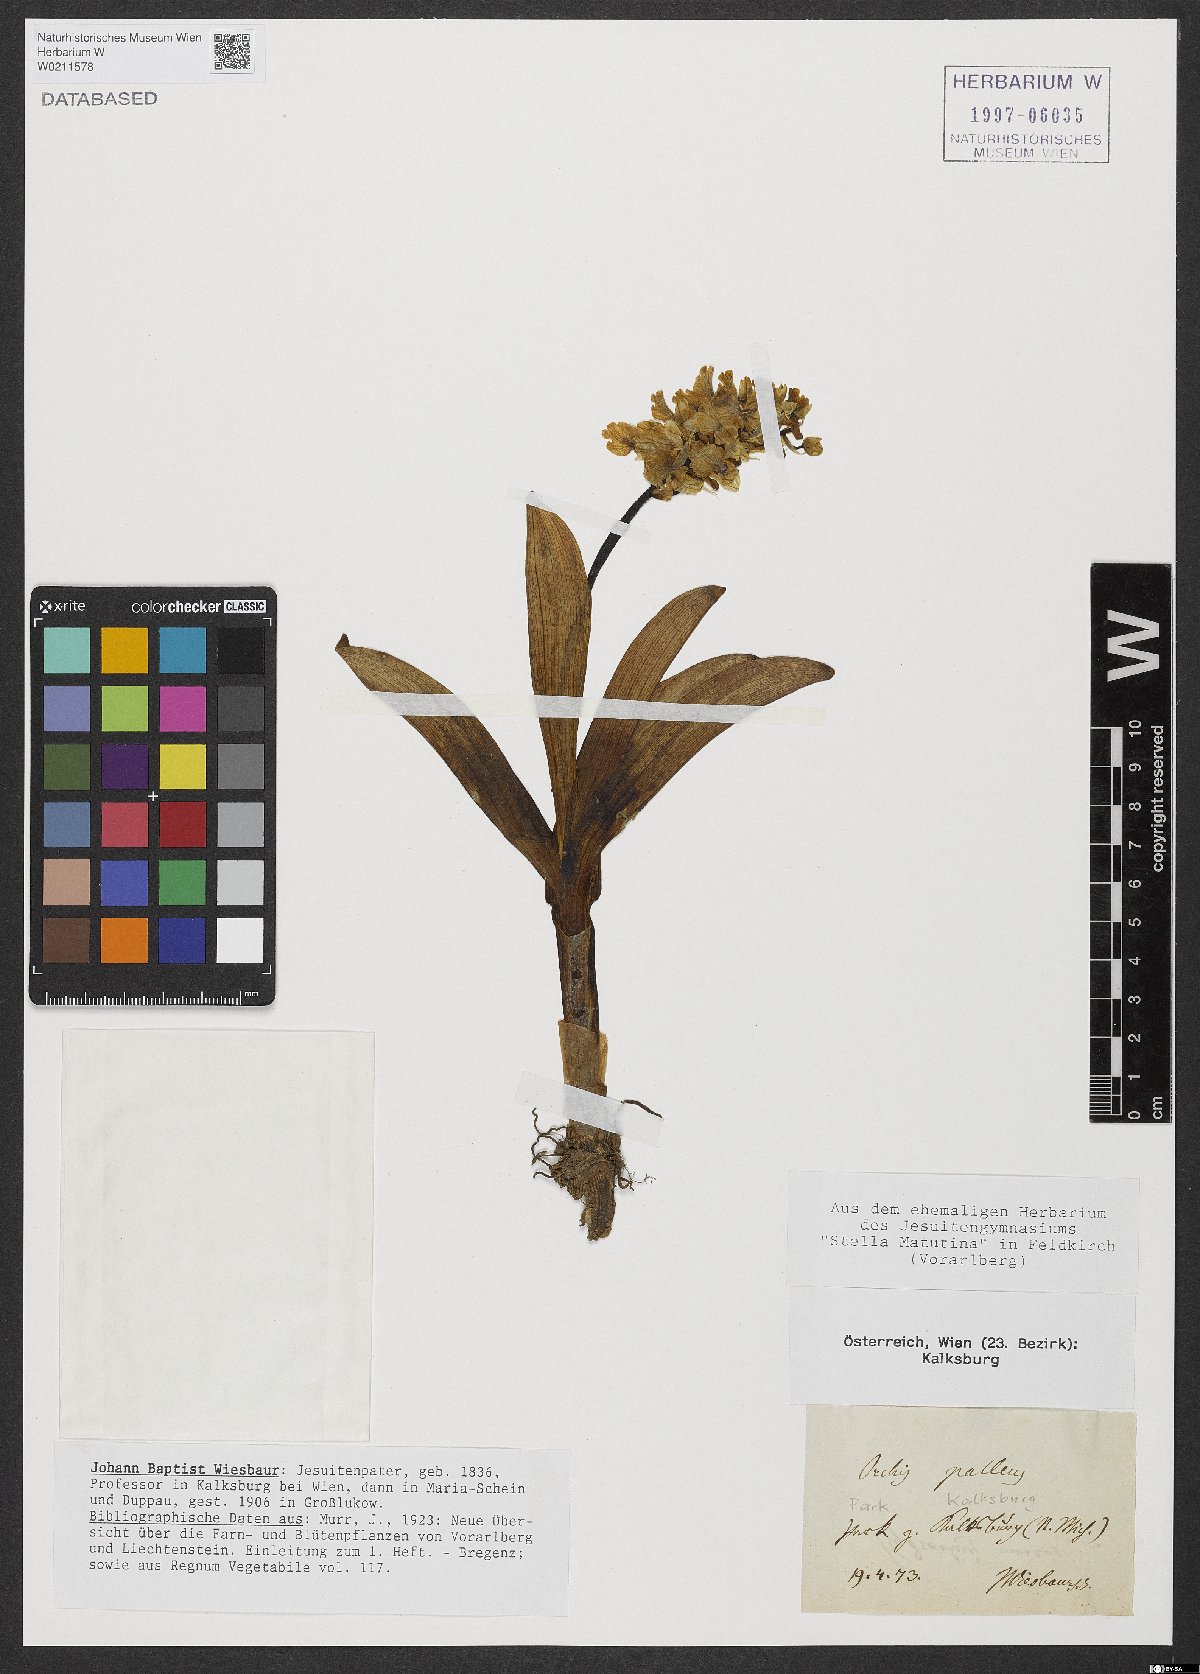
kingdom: Plantae
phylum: Tracheophyta
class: Liliopsida
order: Asparagales
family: Orchidaceae
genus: Orchis
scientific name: Orchis pallens
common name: Pale-flowered orchid
